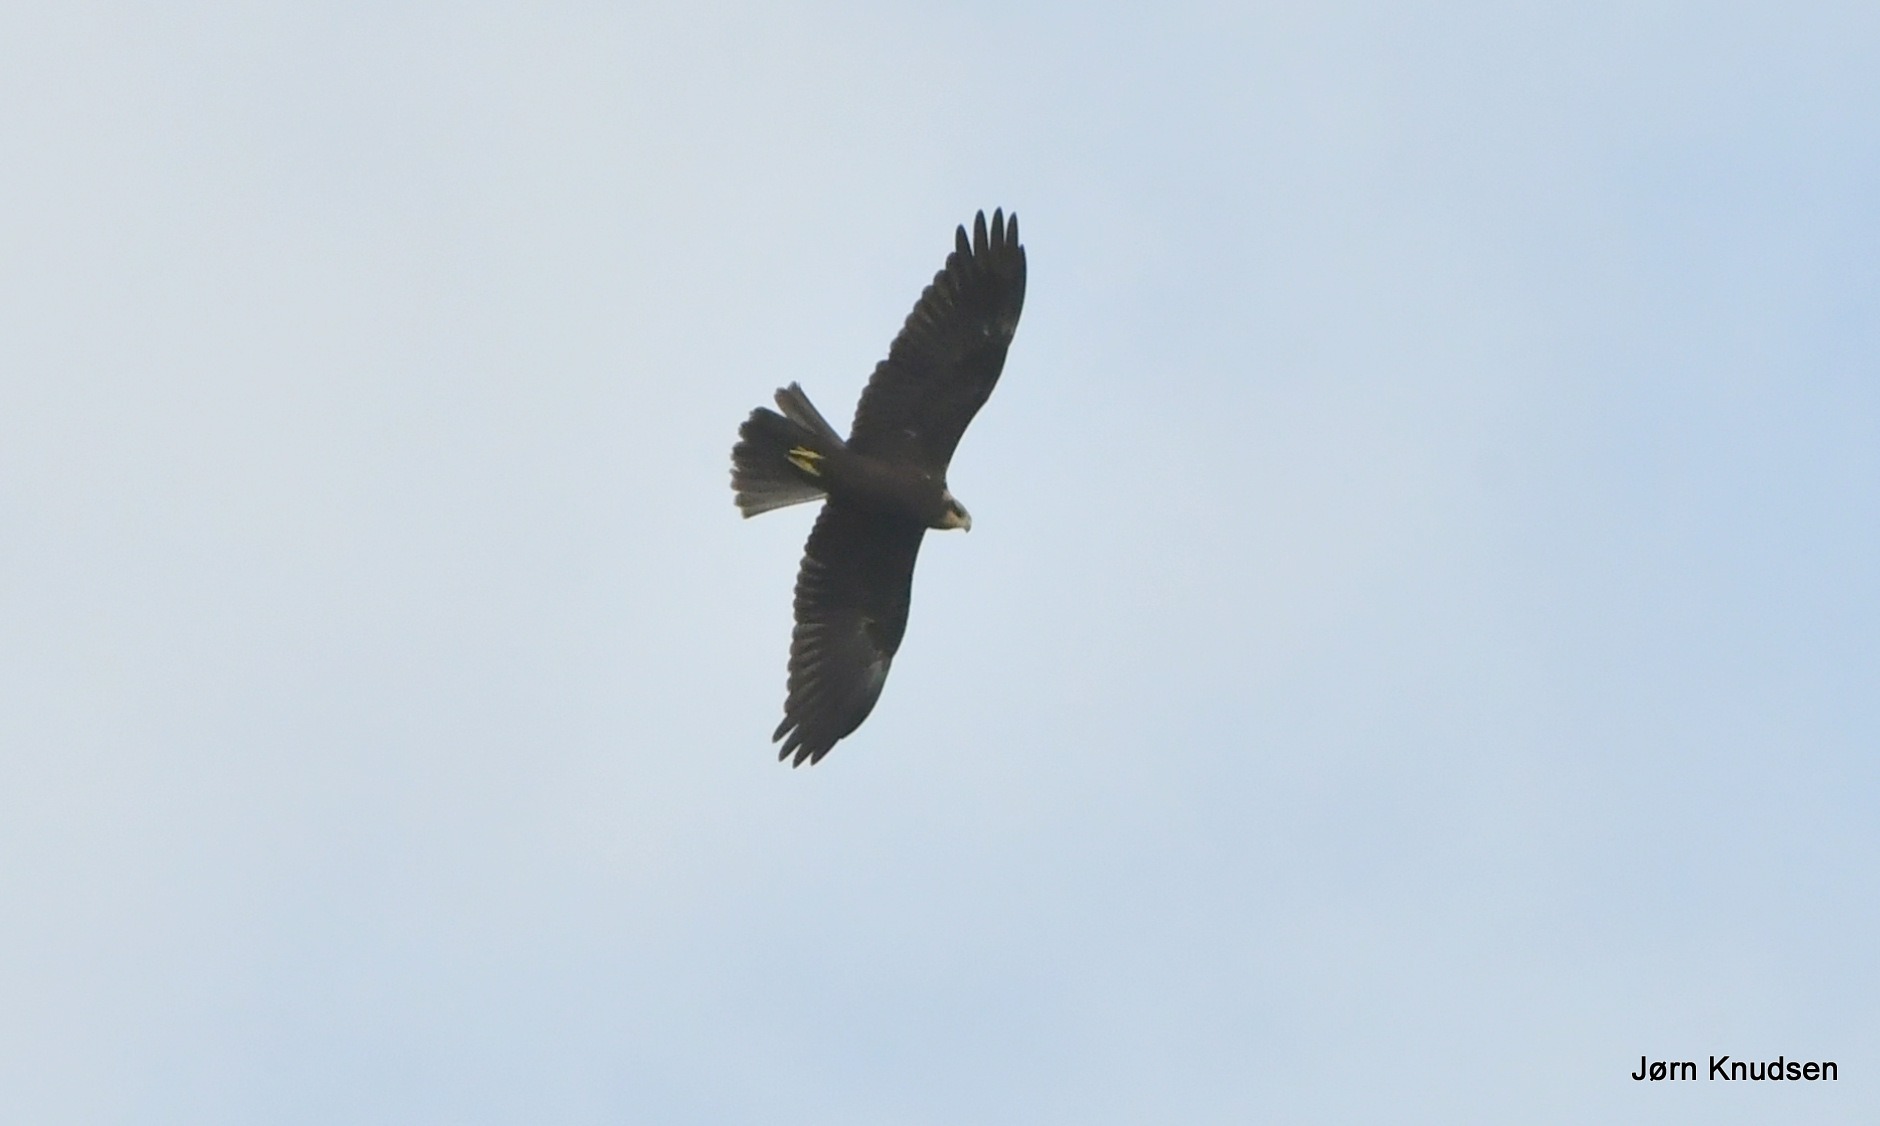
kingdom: Animalia
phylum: Chordata
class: Aves
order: Accipitriformes
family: Accipitridae
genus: Circus
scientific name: Circus aeruginosus
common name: Rørhøg
